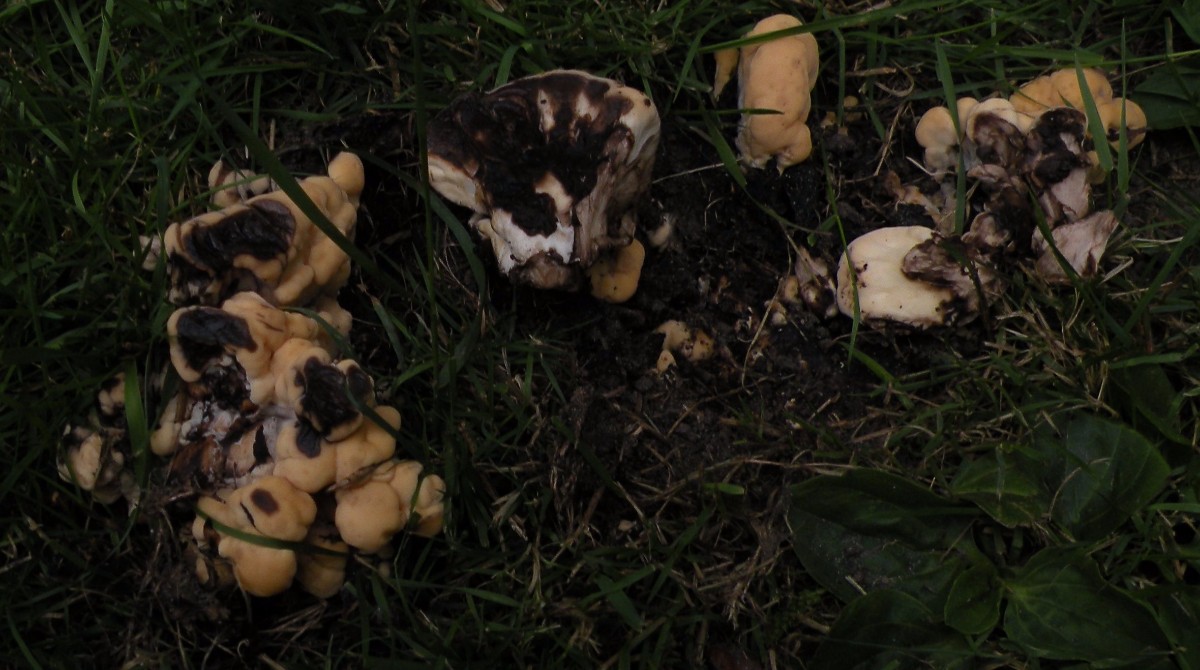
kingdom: Fungi
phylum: Basidiomycota
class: Agaricomycetes
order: Polyporales
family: Meripilaceae
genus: Meripilus
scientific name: Meripilus giganteus
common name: kæmpeporesvamp
